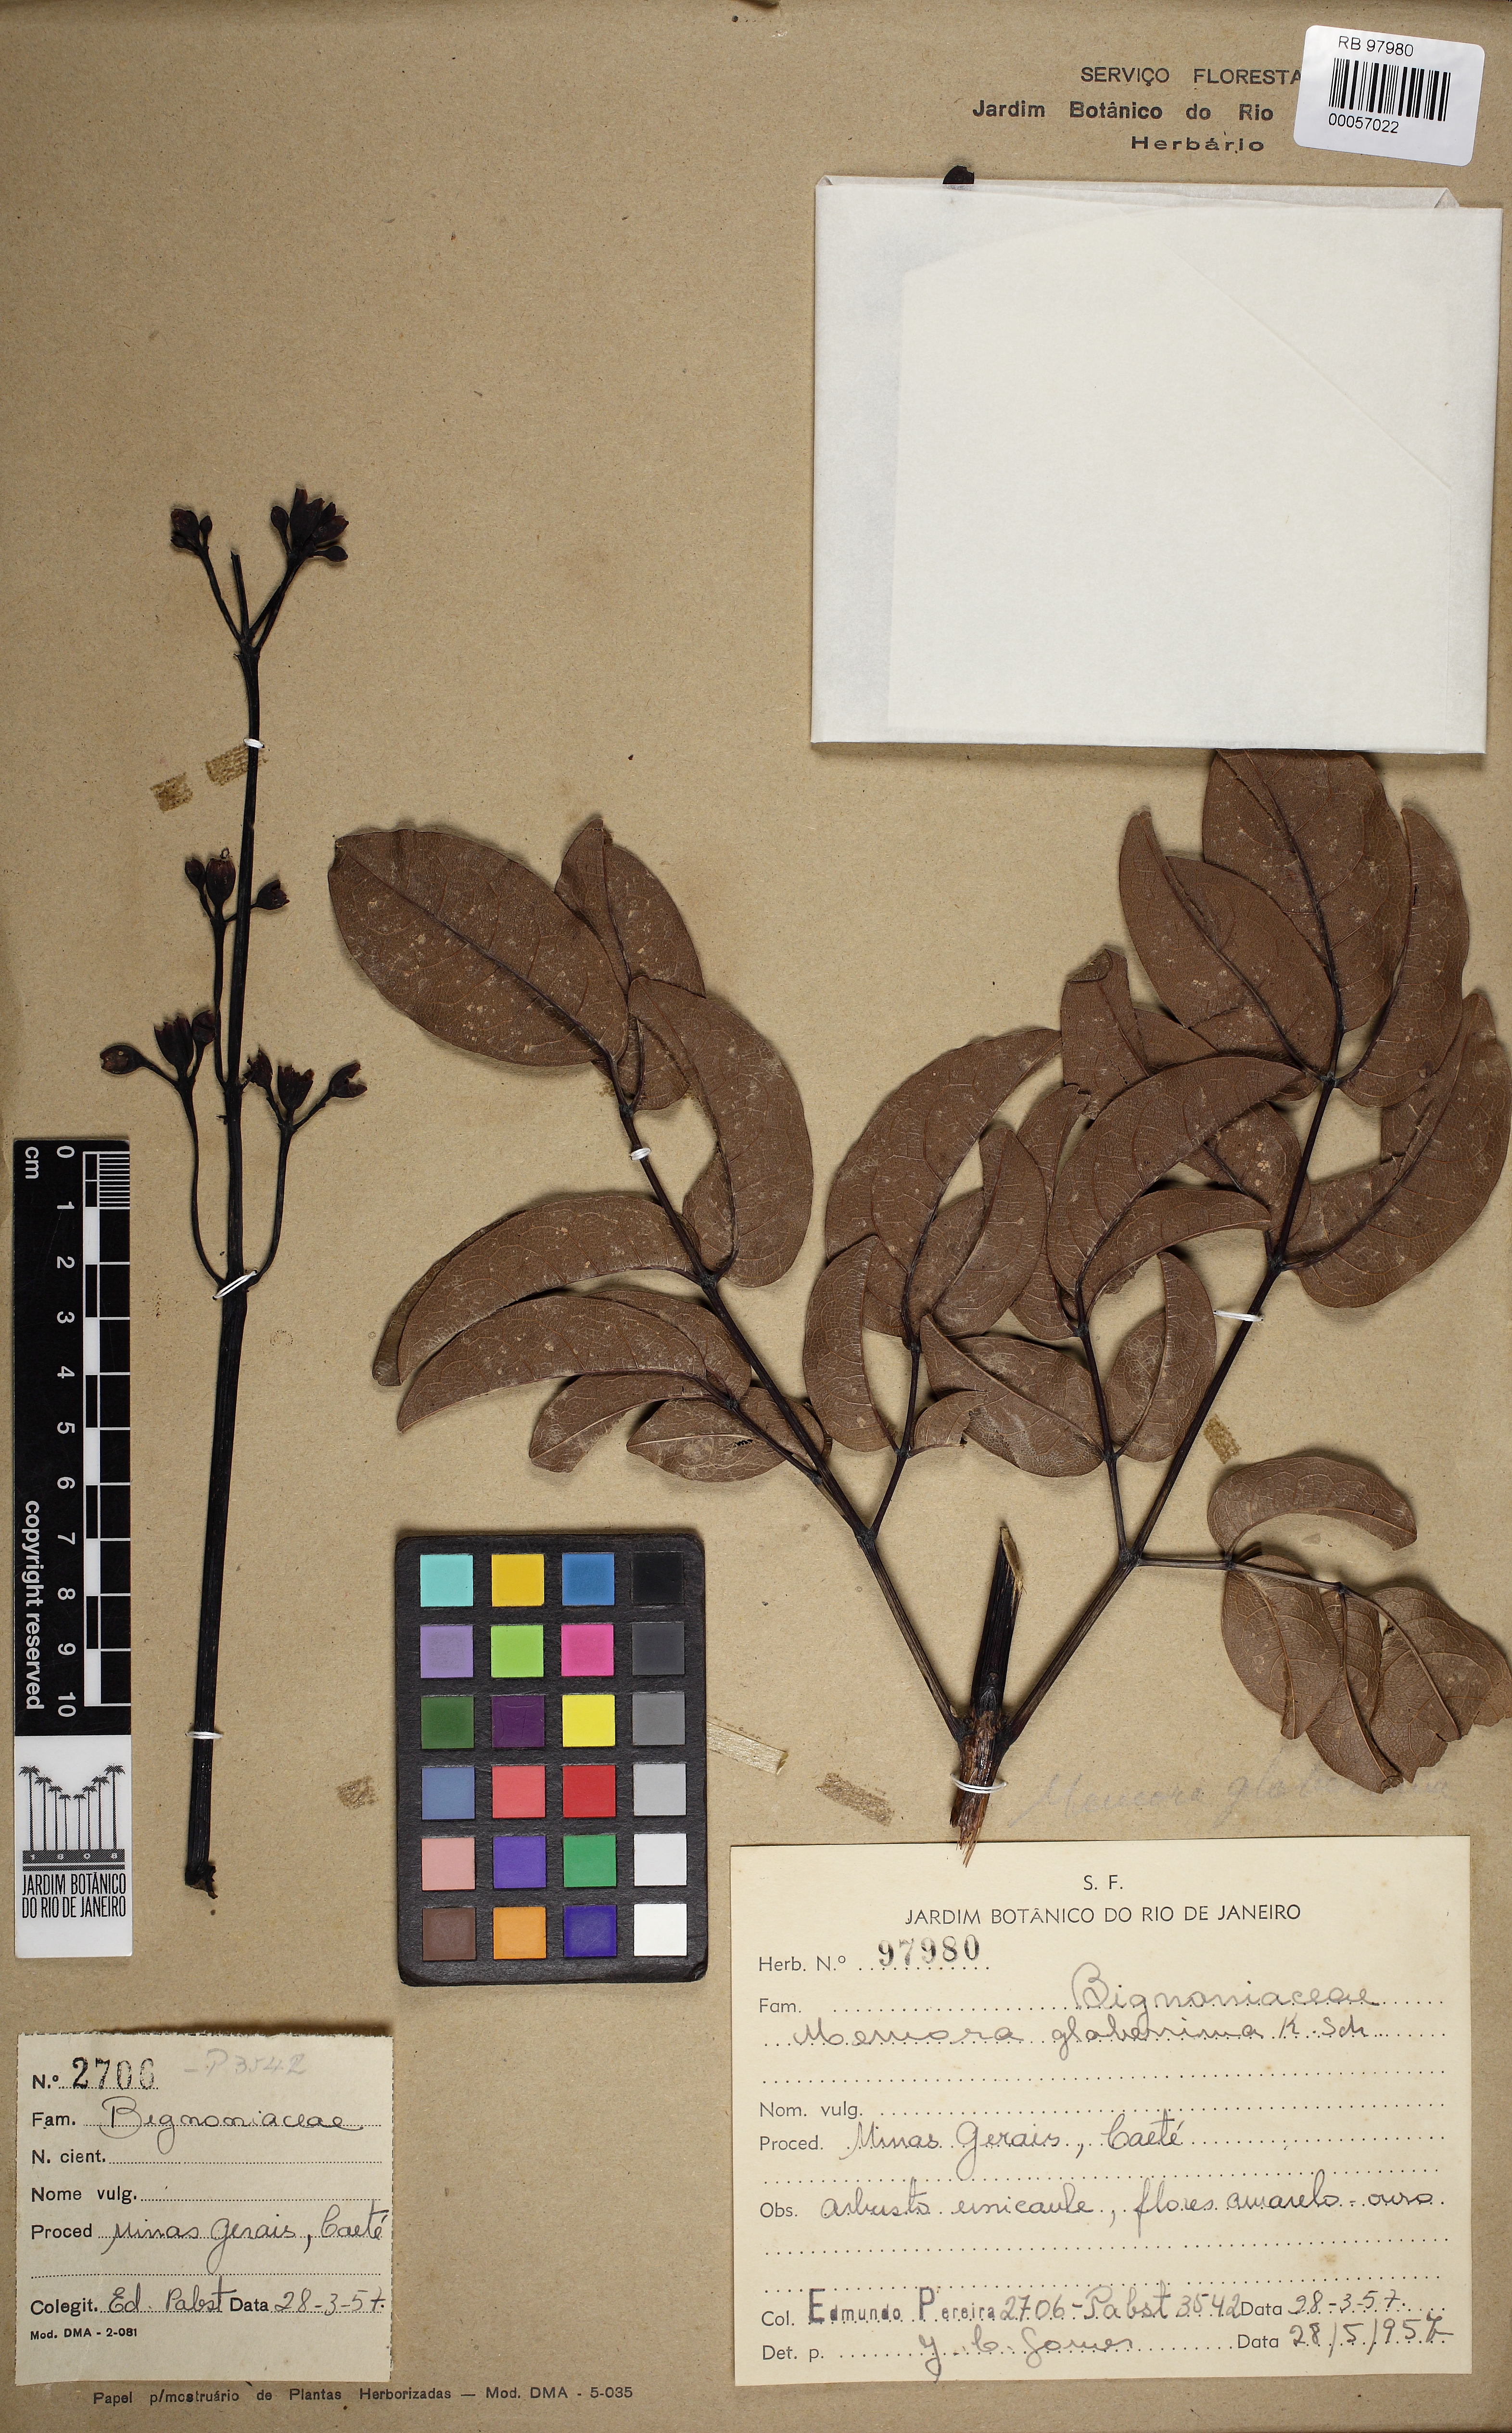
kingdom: Plantae
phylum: Tracheophyta
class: Magnoliopsida
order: Lamiales
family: Bignoniaceae
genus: Adenocalymma
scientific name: Adenocalymma pedunculatum
